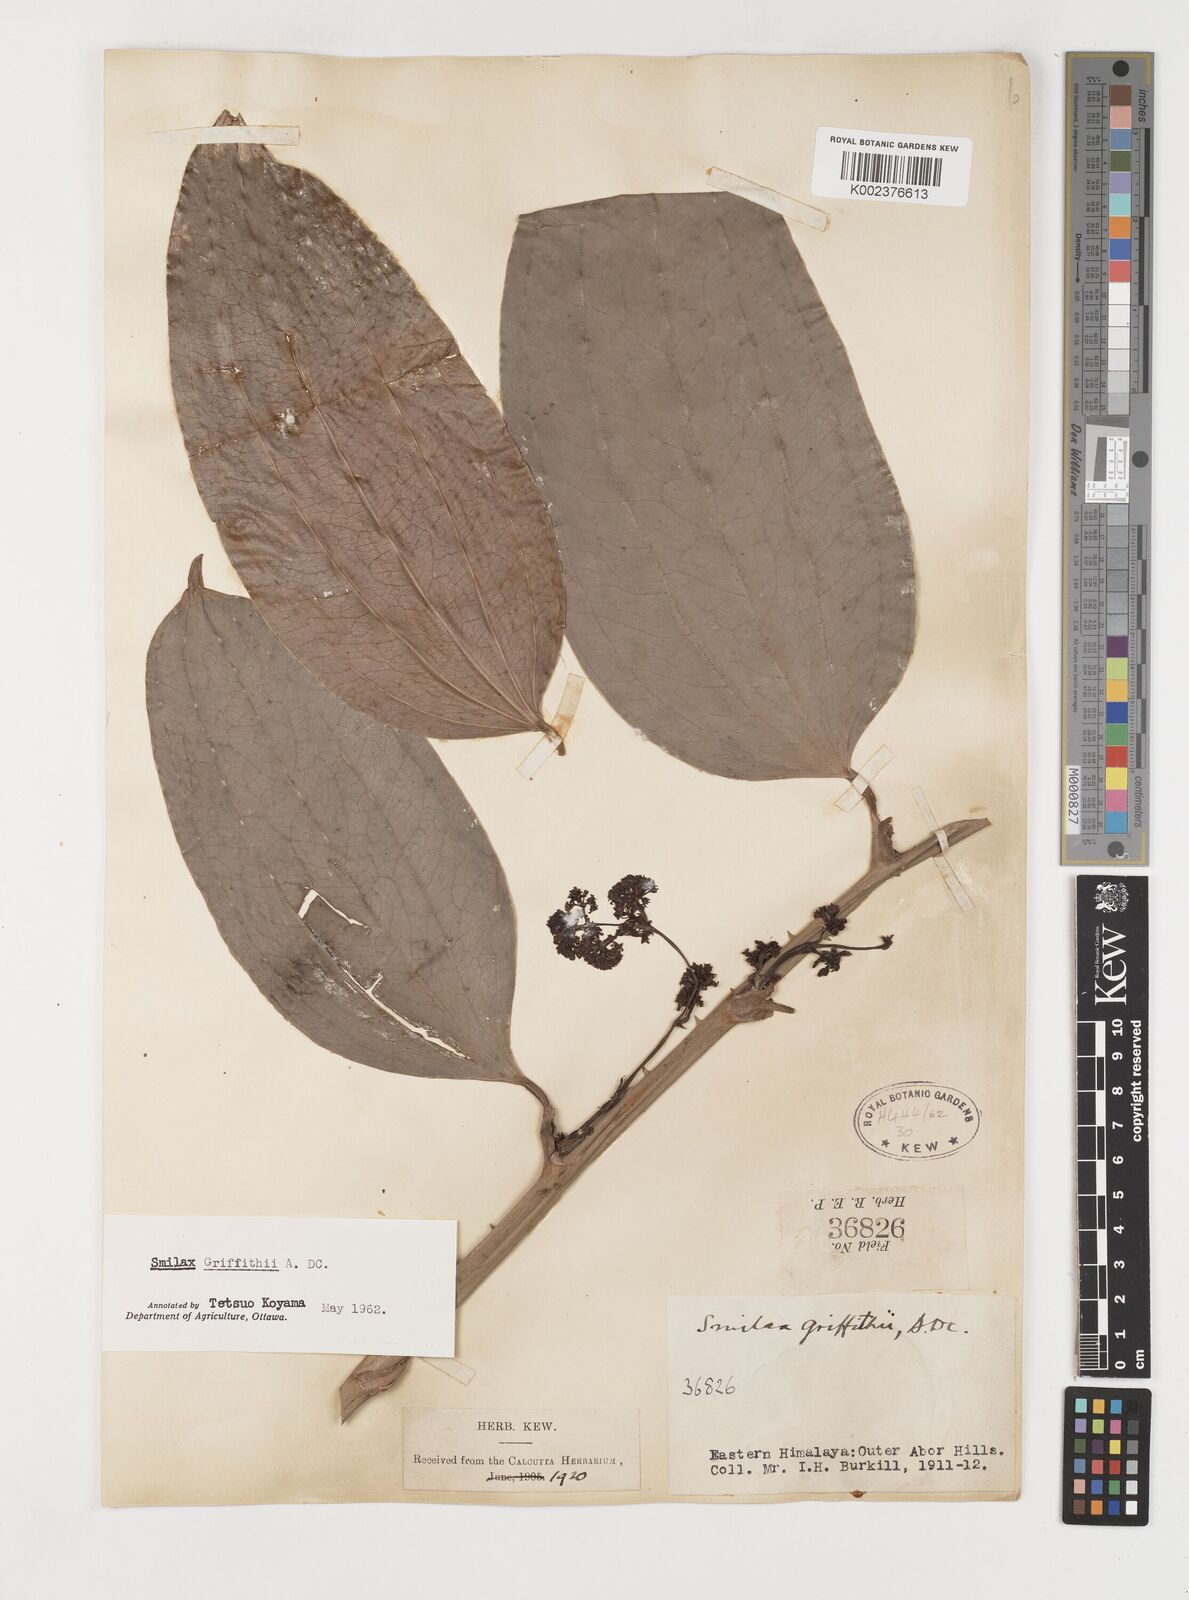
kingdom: Plantae
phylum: Tracheophyta
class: Liliopsida
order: Liliales
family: Smilacaceae
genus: Smilax
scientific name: Smilax griffithii
